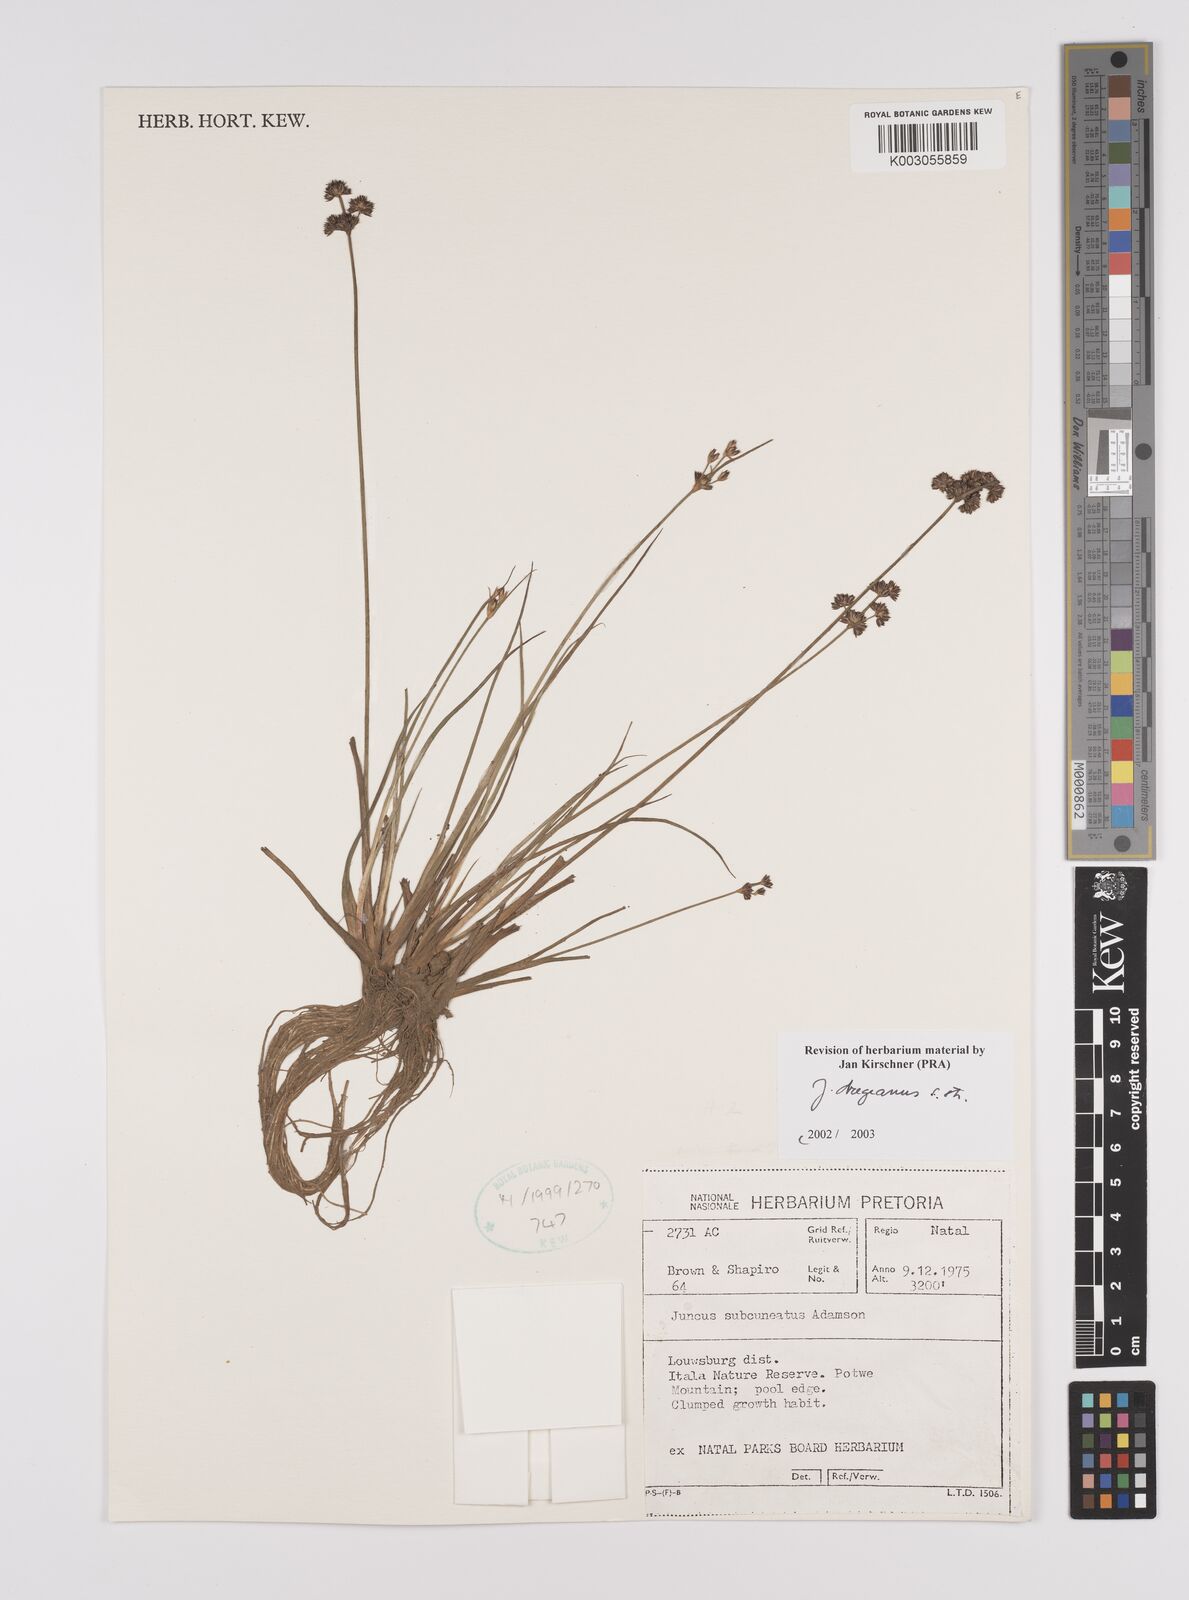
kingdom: Plantae
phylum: Tracheophyta
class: Liliopsida
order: Poales
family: Juncaceae
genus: Juncus
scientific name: Juncus dregeanus
